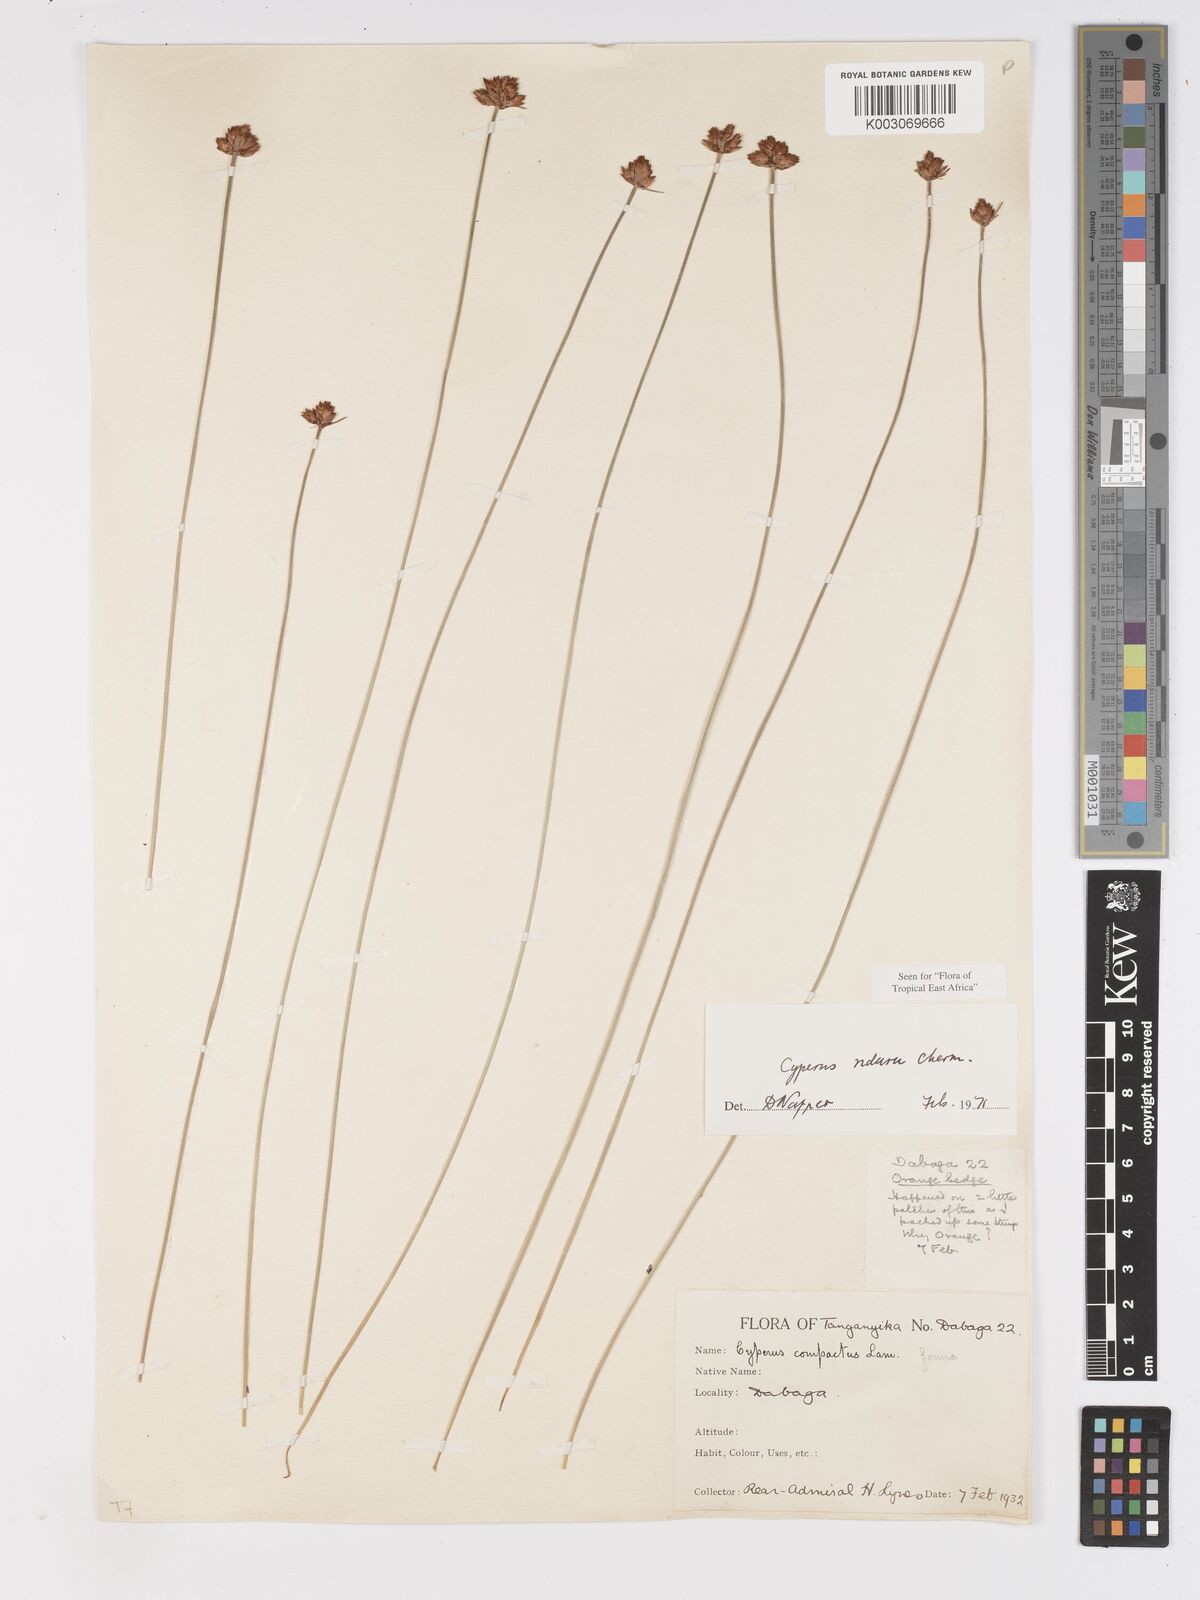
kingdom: Plantae
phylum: Tracheophyta
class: Liliopsida
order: Poales
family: Cyperaceae
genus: Cyperus
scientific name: Cyperus nduru
